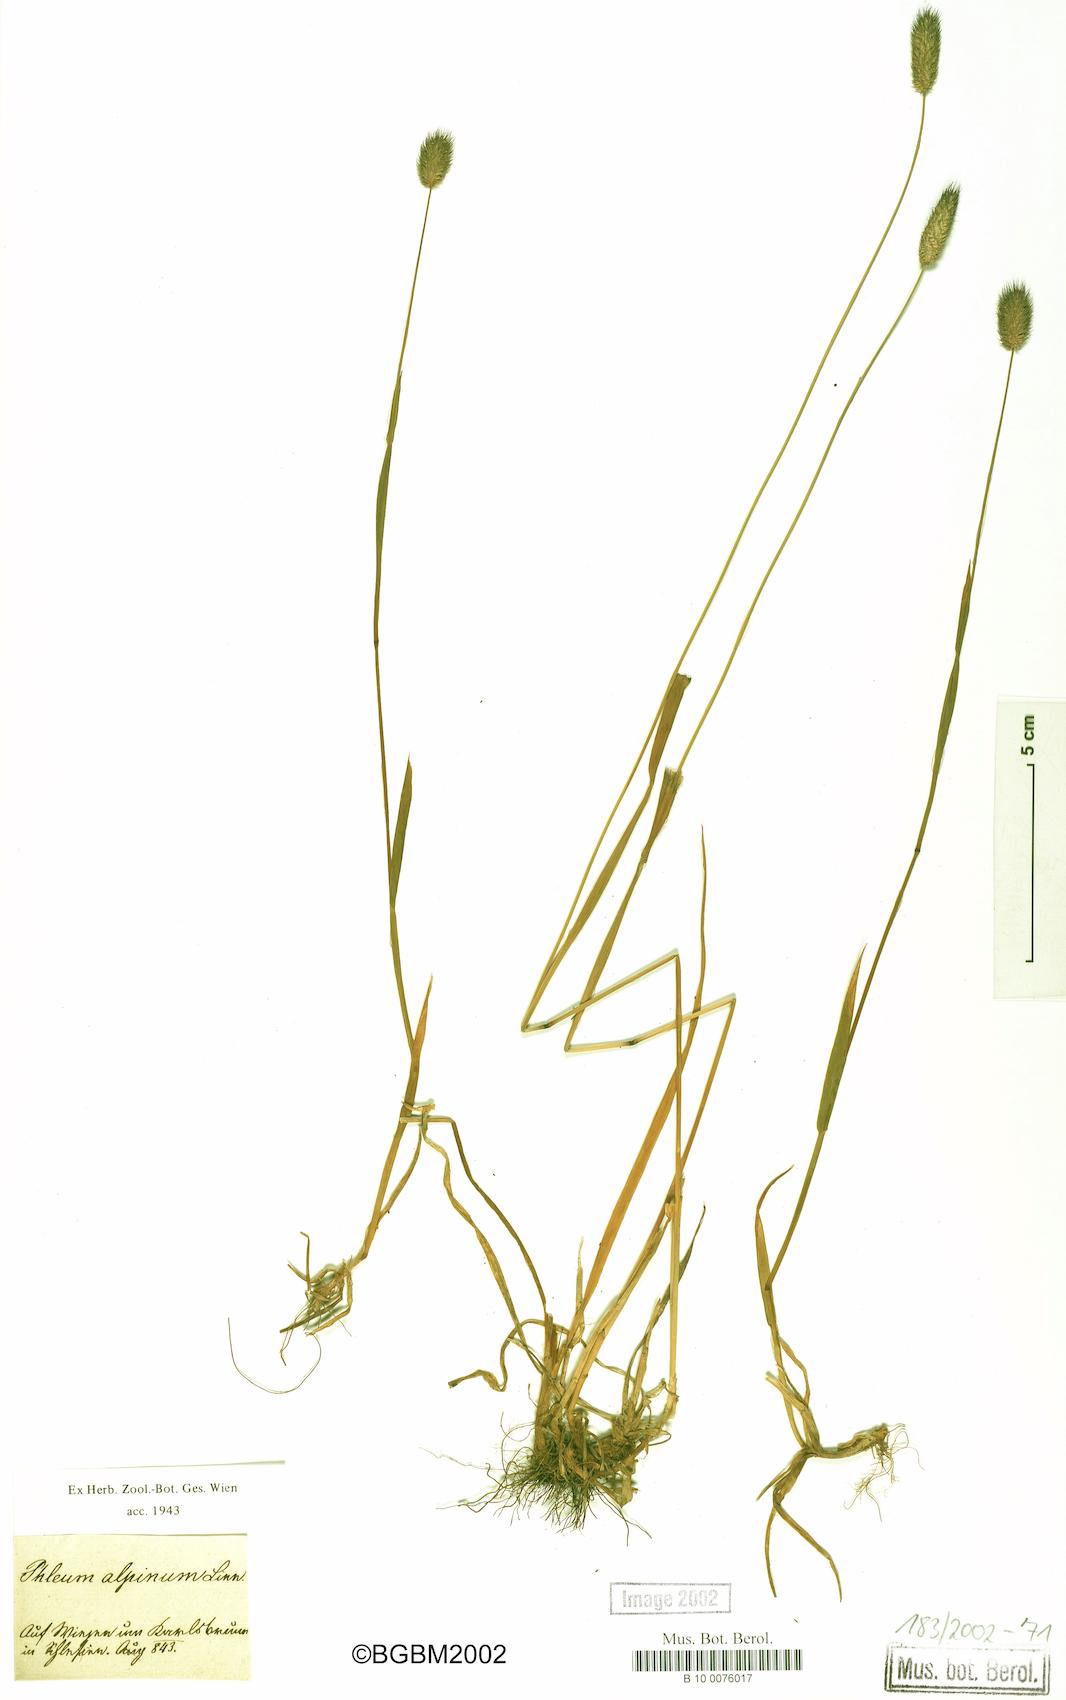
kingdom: Plantae
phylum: Tracheophyta
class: Liliopsida
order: Poales
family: Poaceae
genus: Phleum
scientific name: Phleum alpinum
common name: Alpine cat's-tail
